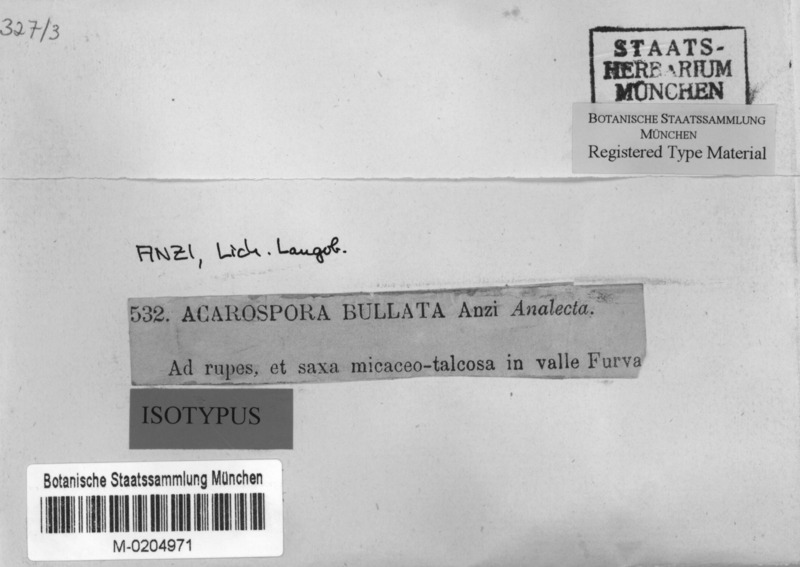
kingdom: Fungi
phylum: Ascomycota
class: Lecanoromycetes
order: Acarosporales
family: Acarosporaceae
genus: Acarospora
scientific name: Acarospora bullata
